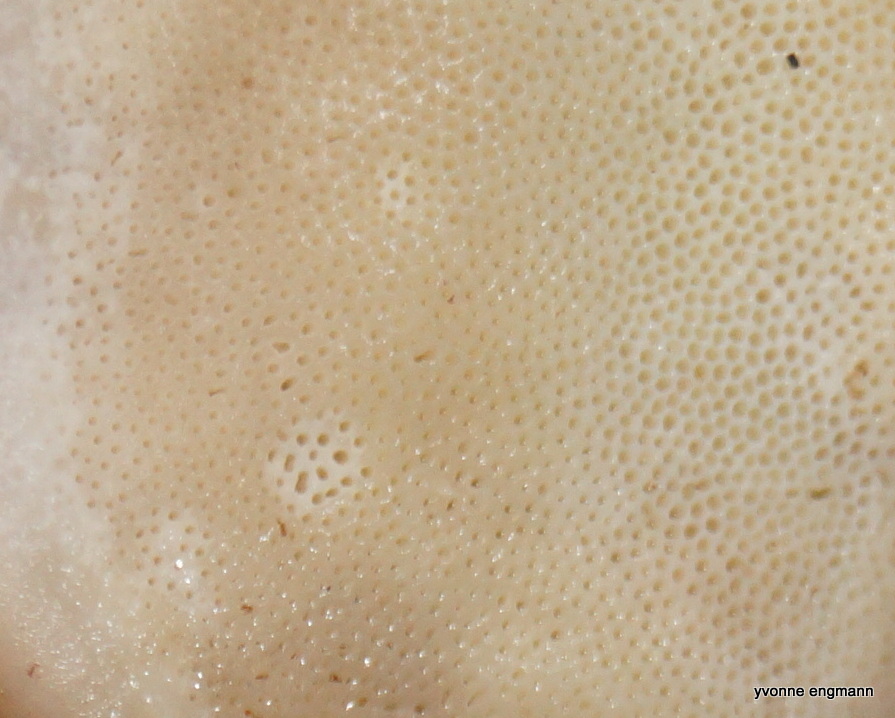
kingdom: Fungi
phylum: Basidiomycota
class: Agaricomycetes
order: Polyporales
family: Fomitopsidaceae
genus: Fomitopsis
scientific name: Fomitopsis pinicola
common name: randbæltet hovporesvamp
